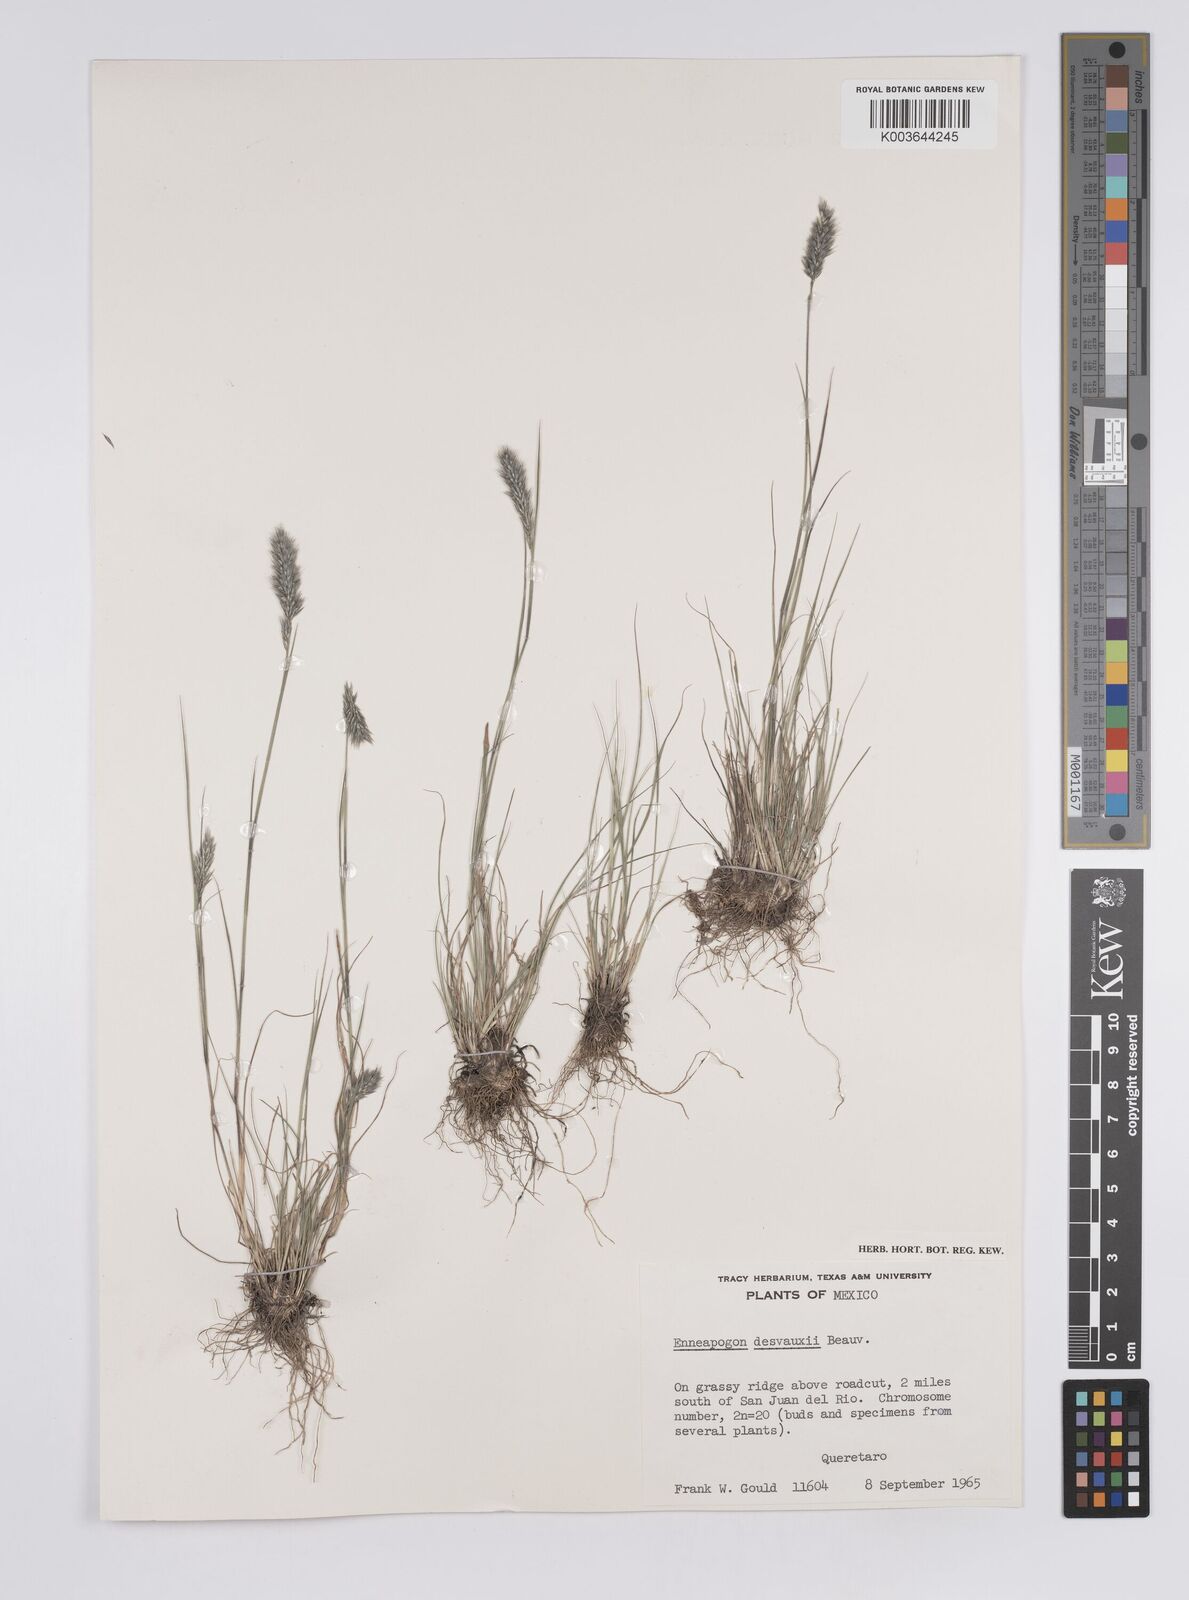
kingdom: Plantae
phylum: Tracheophyta
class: Liliopsida
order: Poales
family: Poaceae
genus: Enneapogon
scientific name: Enneapogon desvauxii
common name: Feather pappus grass
